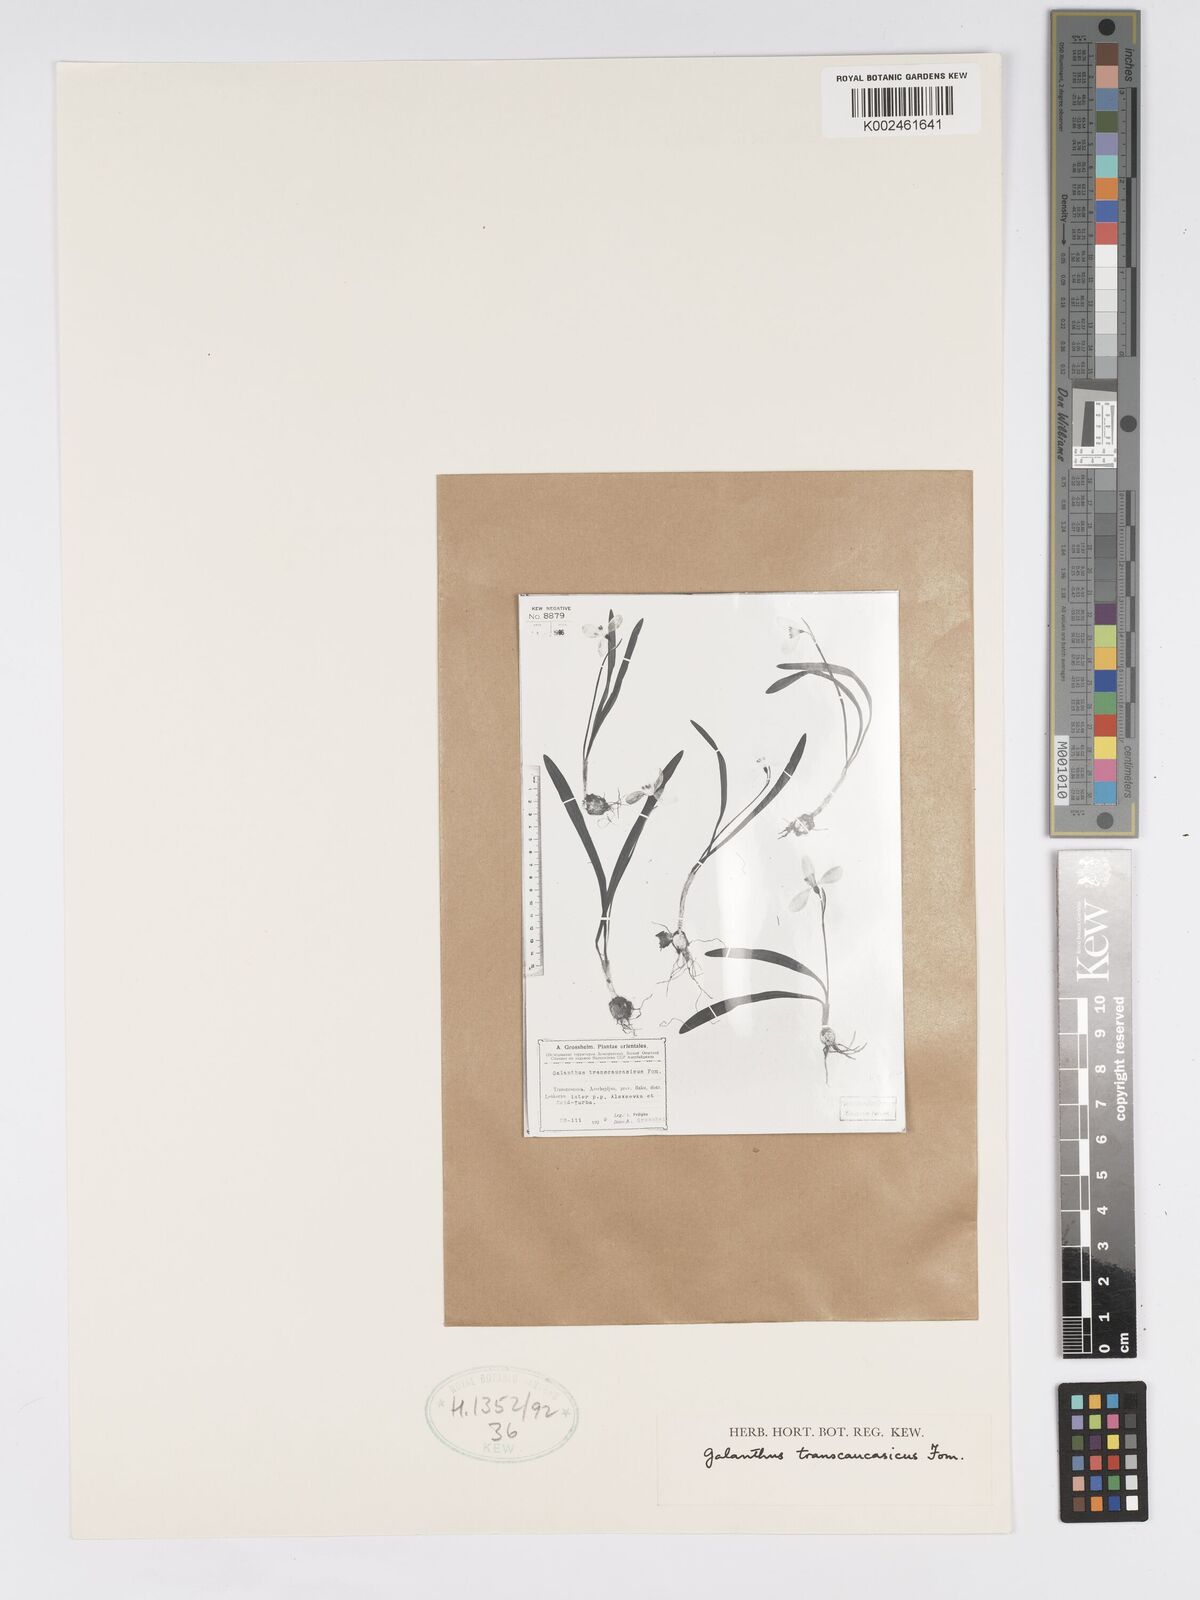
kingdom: Plantae
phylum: Tracheophyta
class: Liliopsida
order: Asparagales
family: Amaryllidaceae
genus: Galanthus
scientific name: Galanthus transcaucasicus
